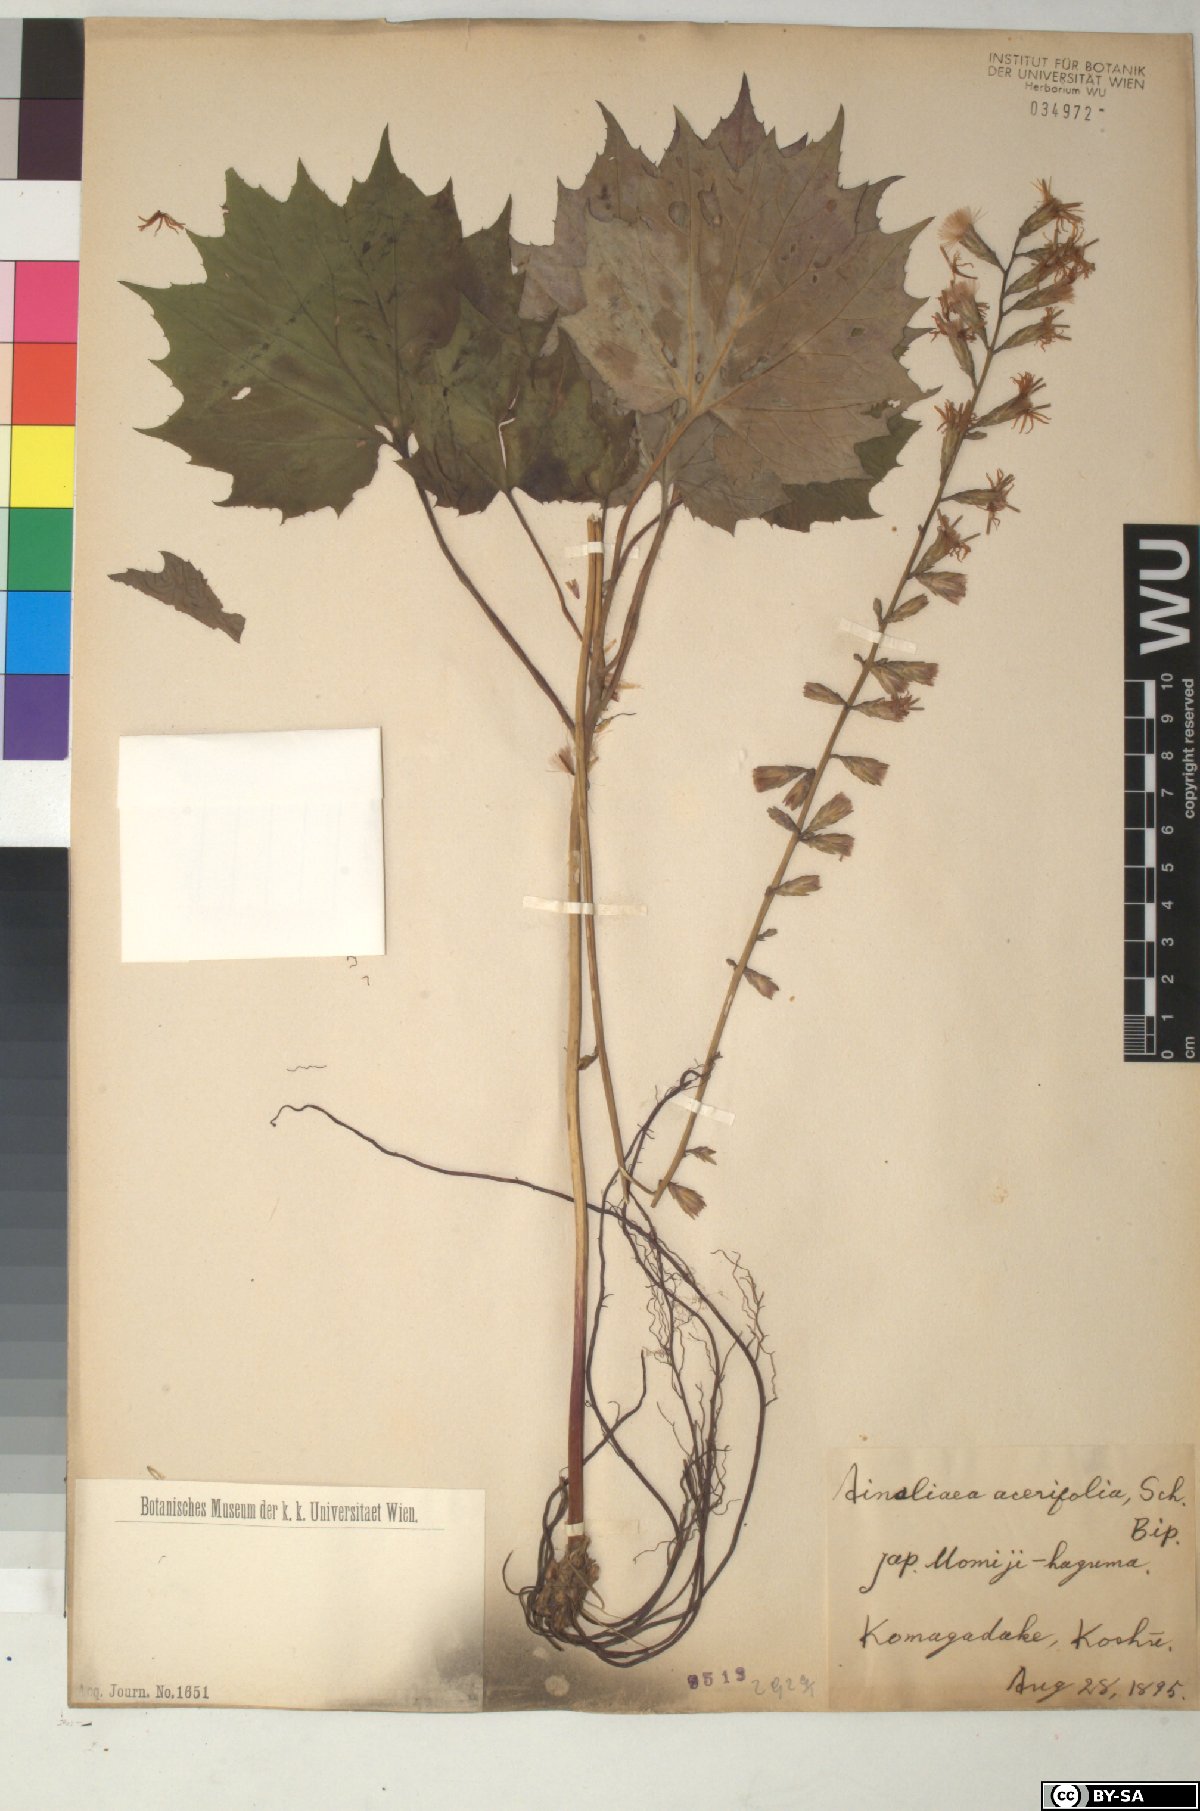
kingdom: Plantae
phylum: Tracheophyta
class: Magnoliopsida
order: Asterales
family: Asteraceae
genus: Ainsliaea
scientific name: Ainsliaea acerifolia
